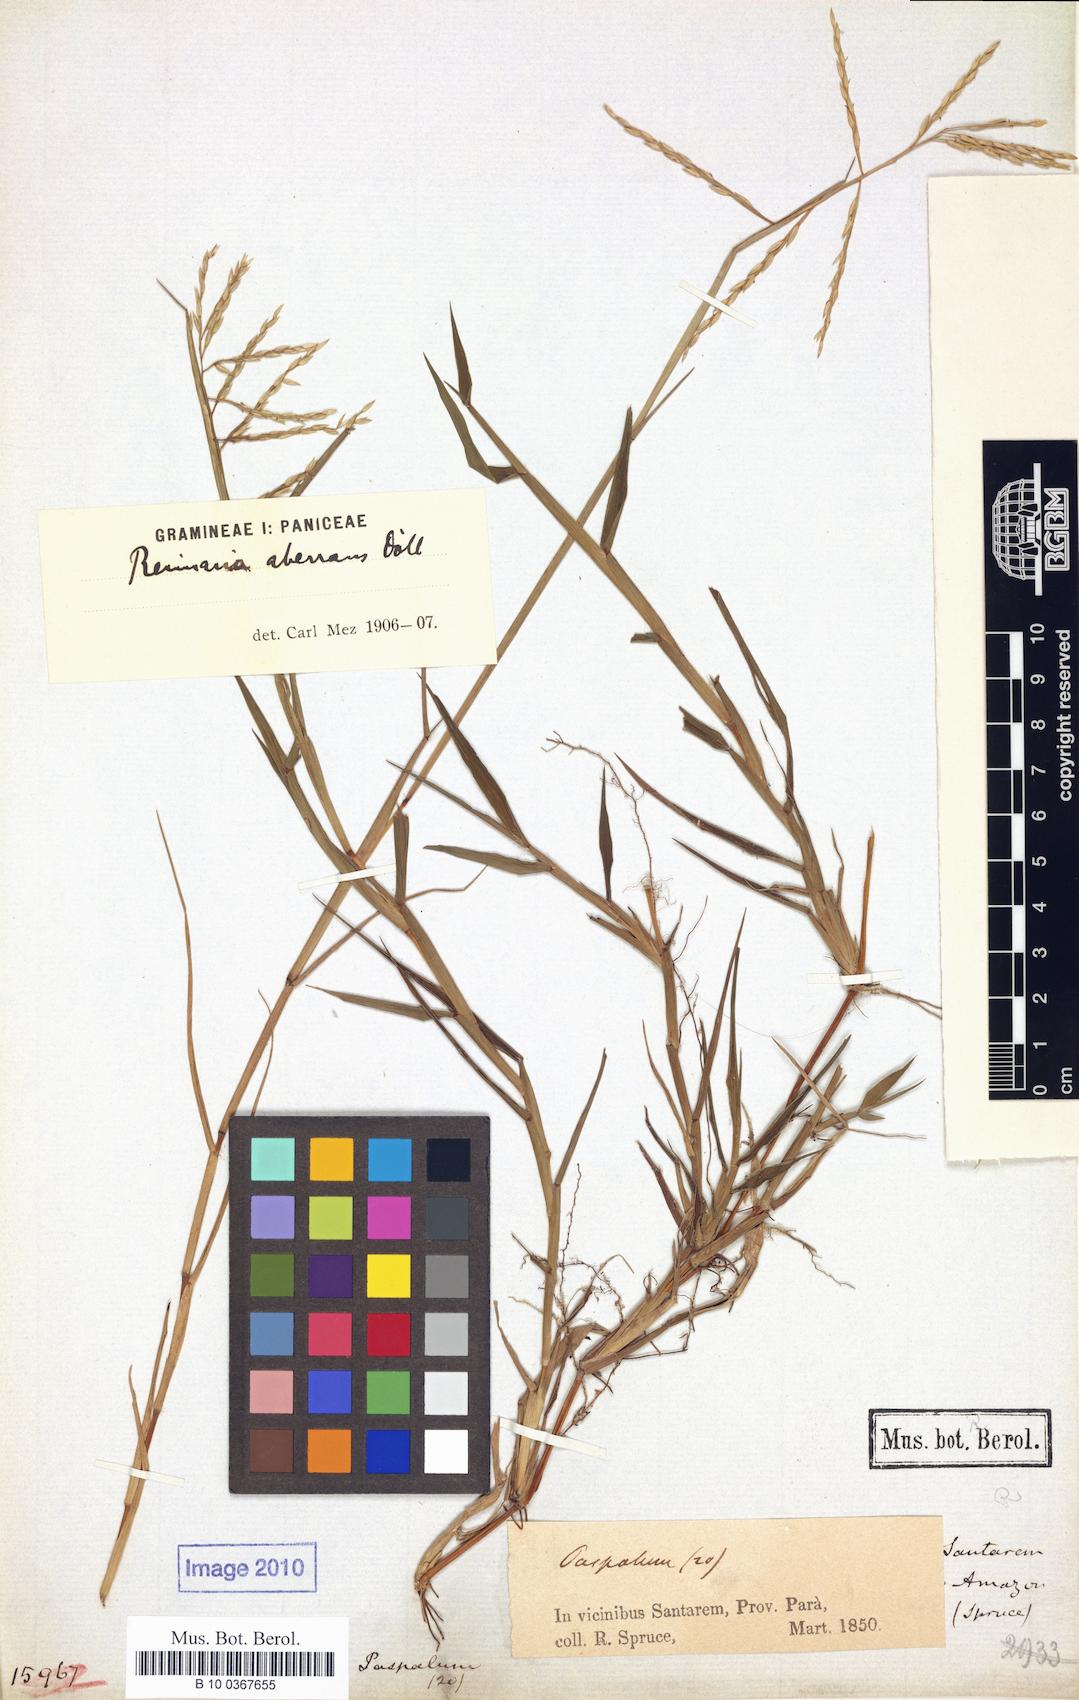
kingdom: Plantae
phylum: Tracheophyta
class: Liliopsida
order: Poales
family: Poaceae
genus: Paspalum
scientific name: Paspalum aberrans
